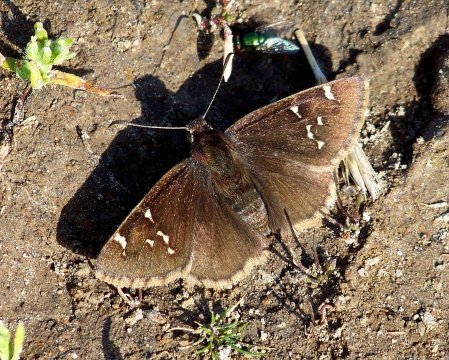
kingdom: Animalia
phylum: Arthropoda
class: Insecta
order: Lepidoptera
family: Hesperiidae
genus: Autochton
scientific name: Autochton
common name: Northern Cloudywing
